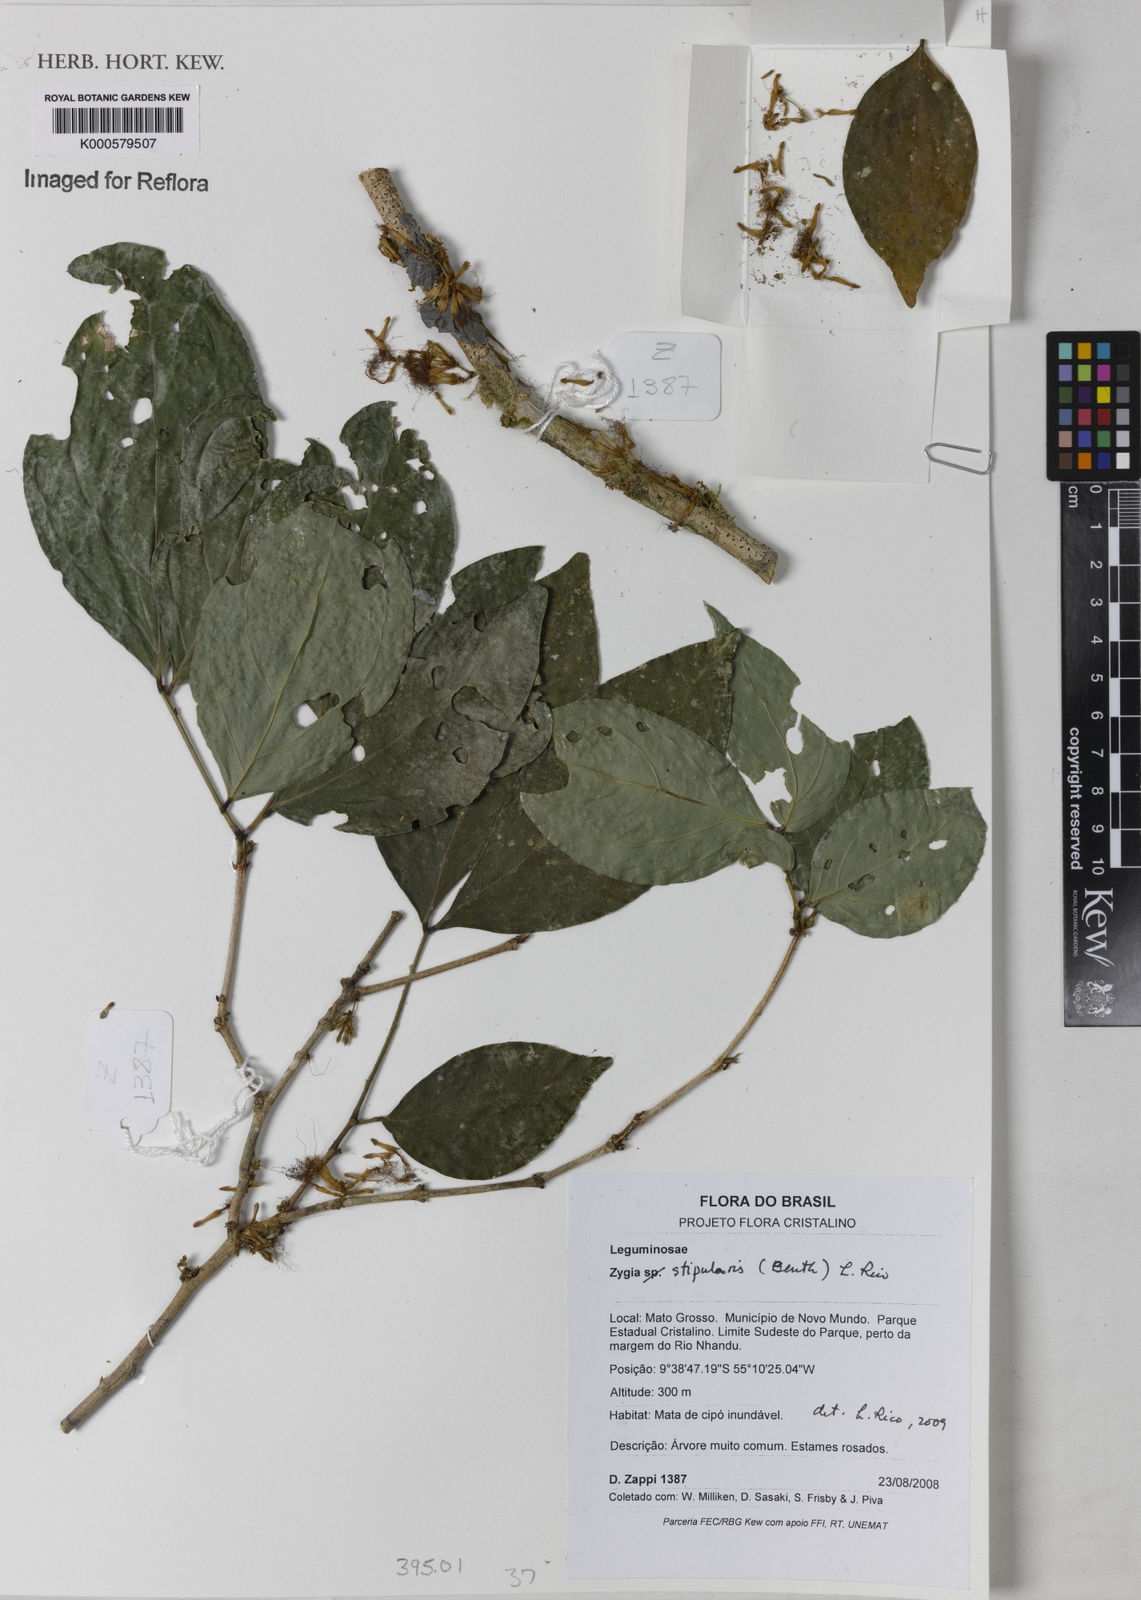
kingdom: Plantae
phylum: Tracheophyta
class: Magnoliopsida
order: Fabales
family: Fabaceae
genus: Zygia
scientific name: Zygia cauliflora
